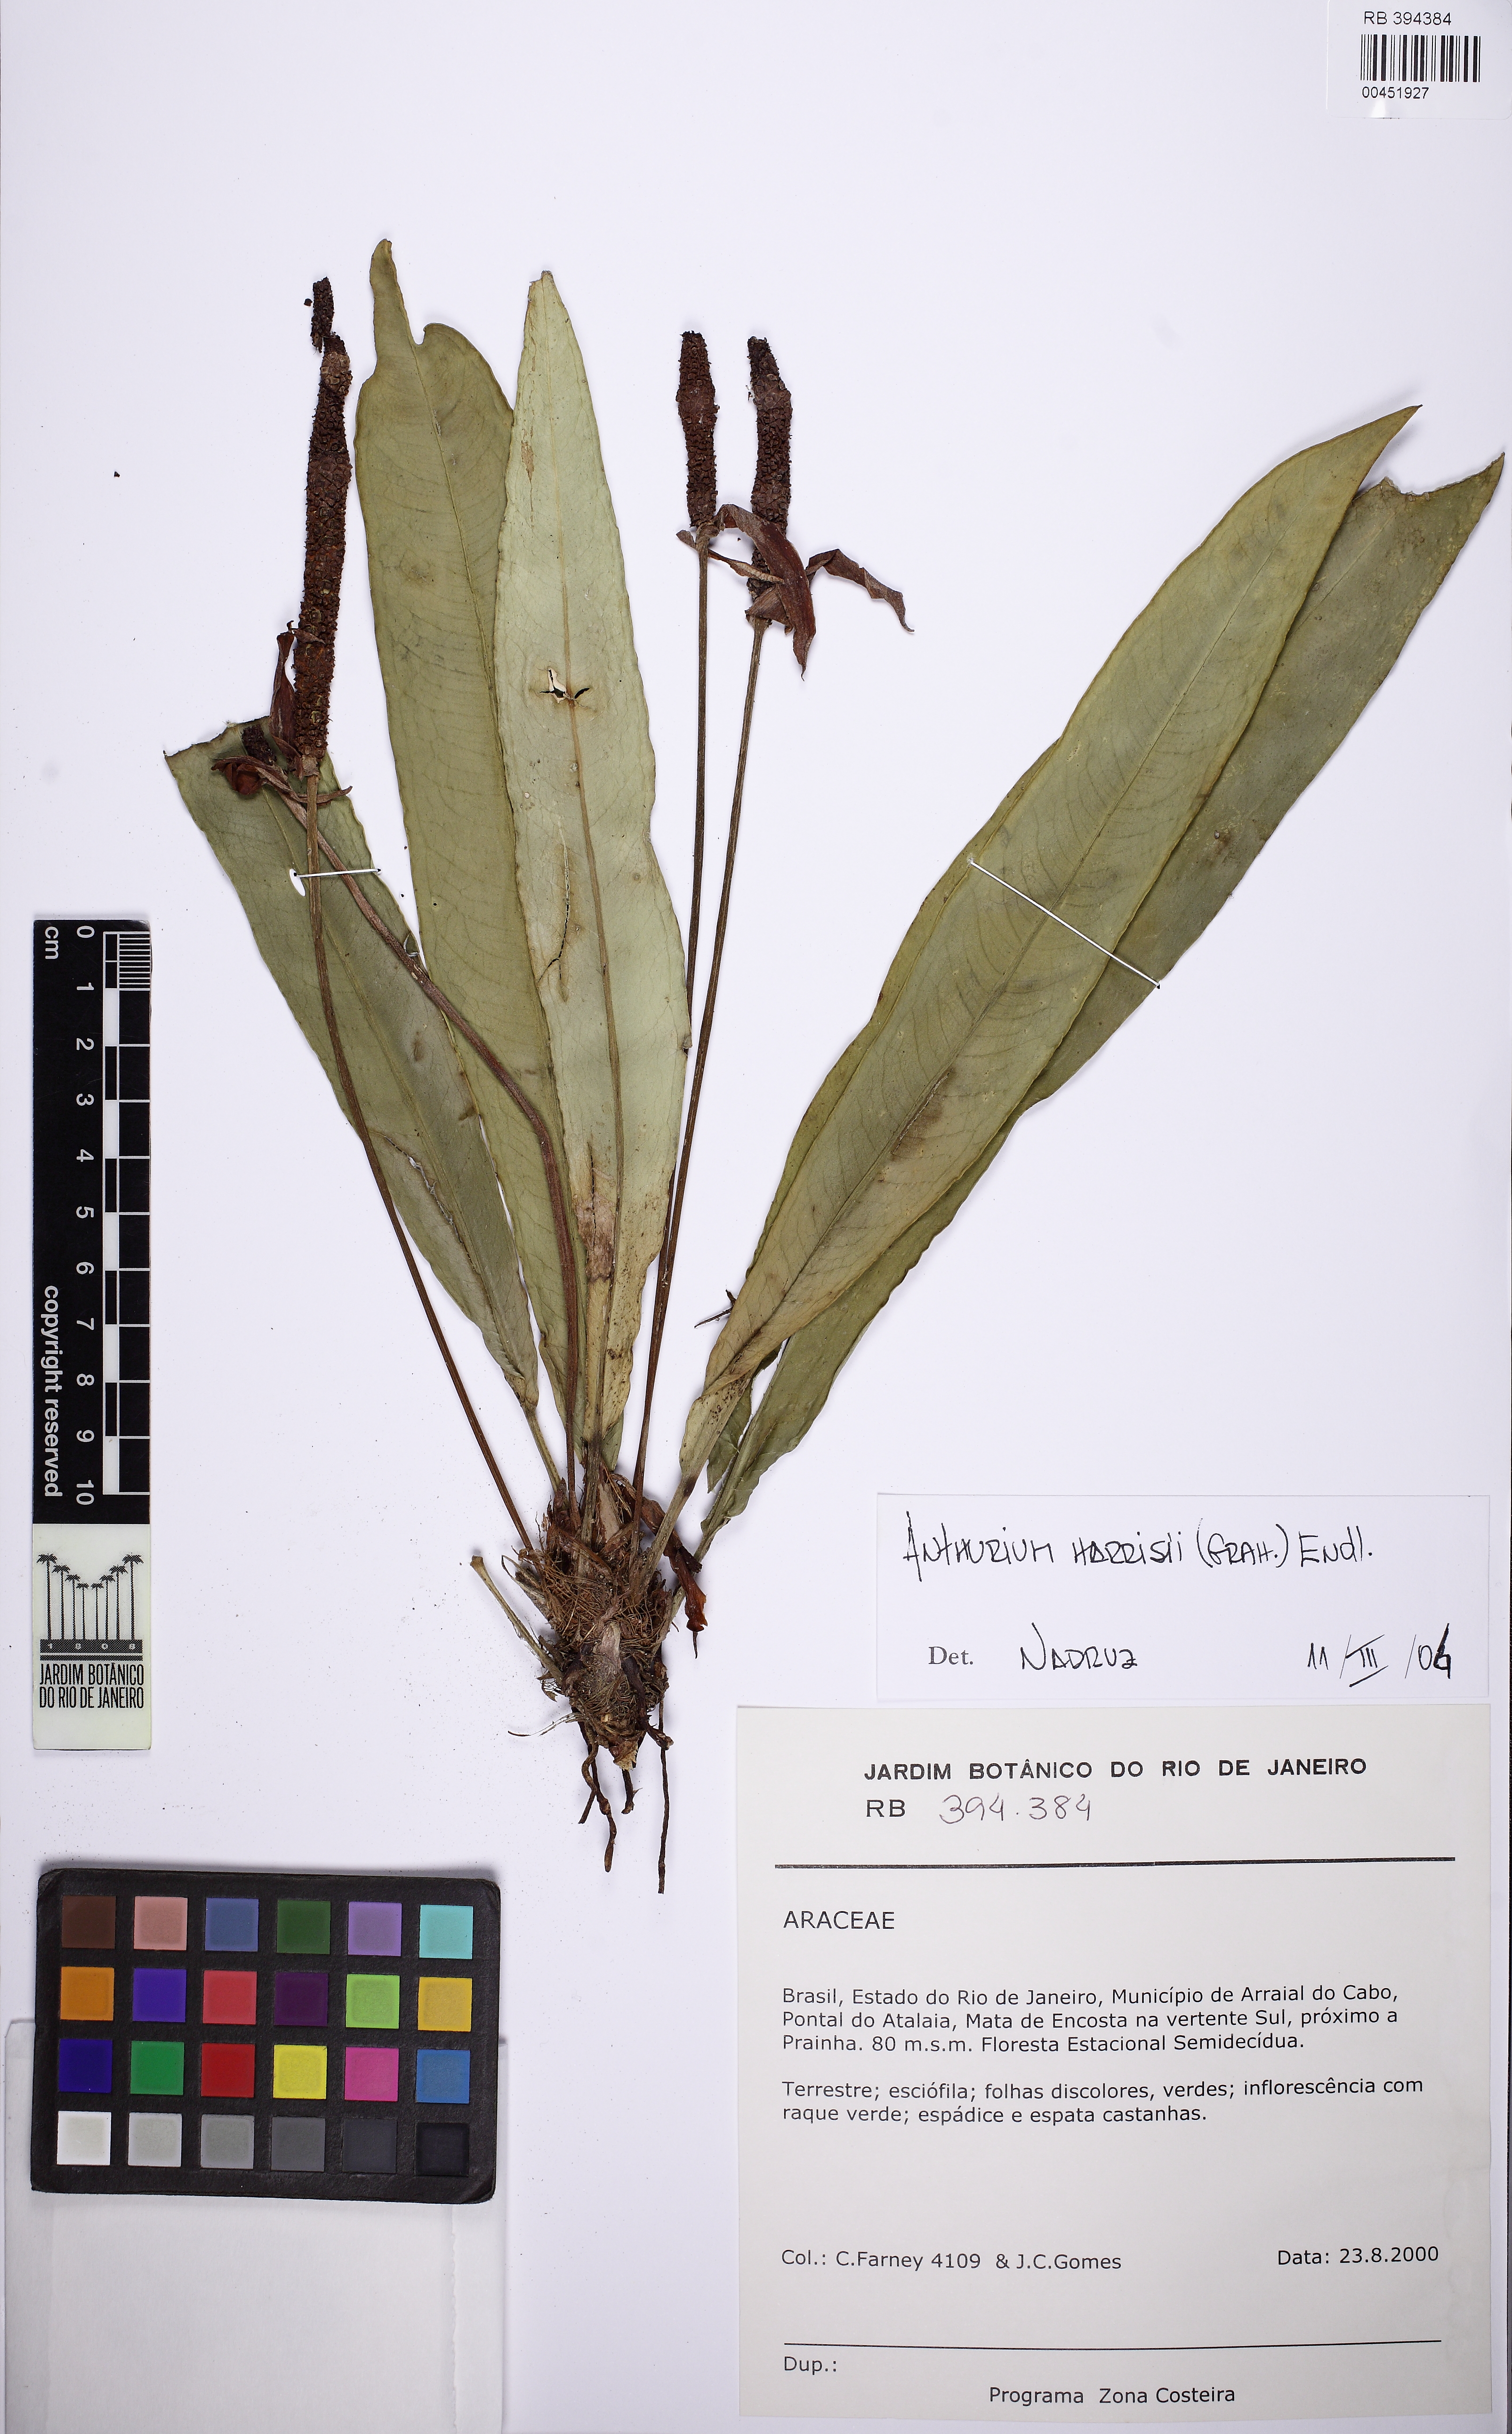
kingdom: Plantae
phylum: Tracheophyta
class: Liliopsida
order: Alismatales
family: Araceae
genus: Anthurium
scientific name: Anthurium harrisii
